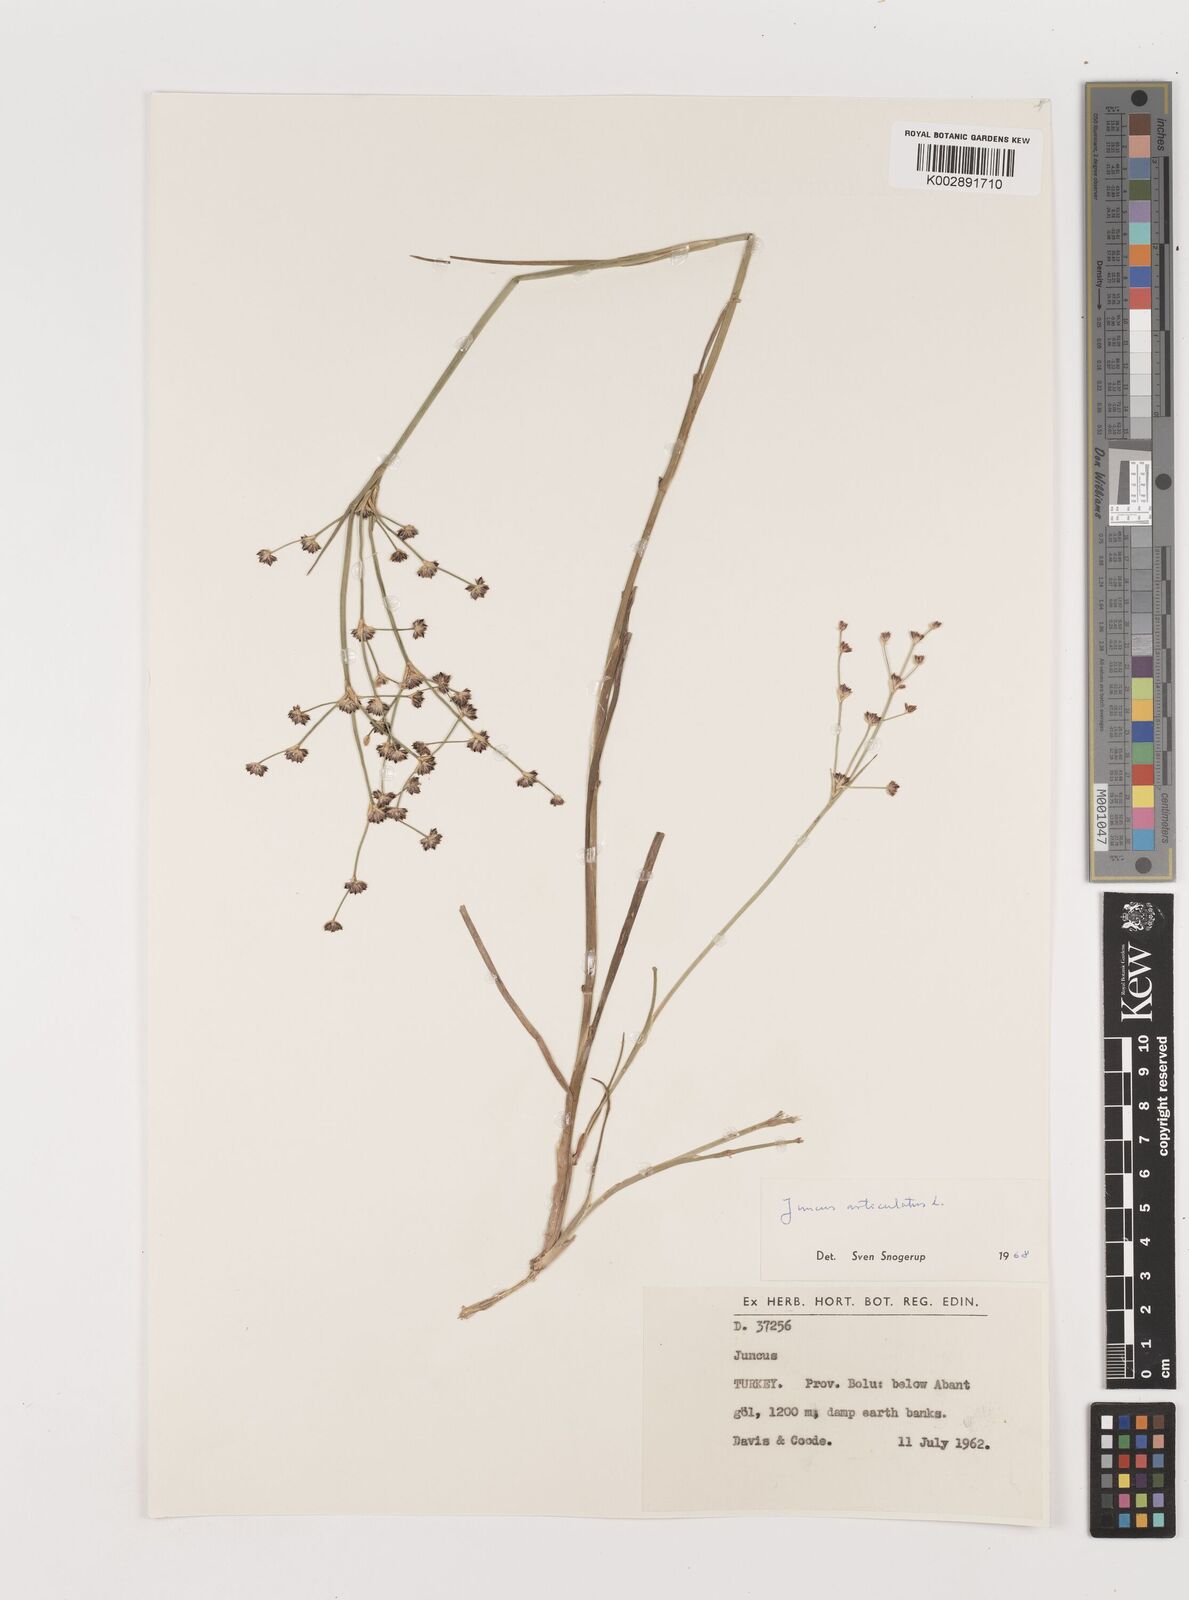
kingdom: Plantae
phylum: Tracheophyta
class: Liliopsida
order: Poales
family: Juncaceae
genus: Juncus
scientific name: Juncus articulatus
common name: Jointed rush
